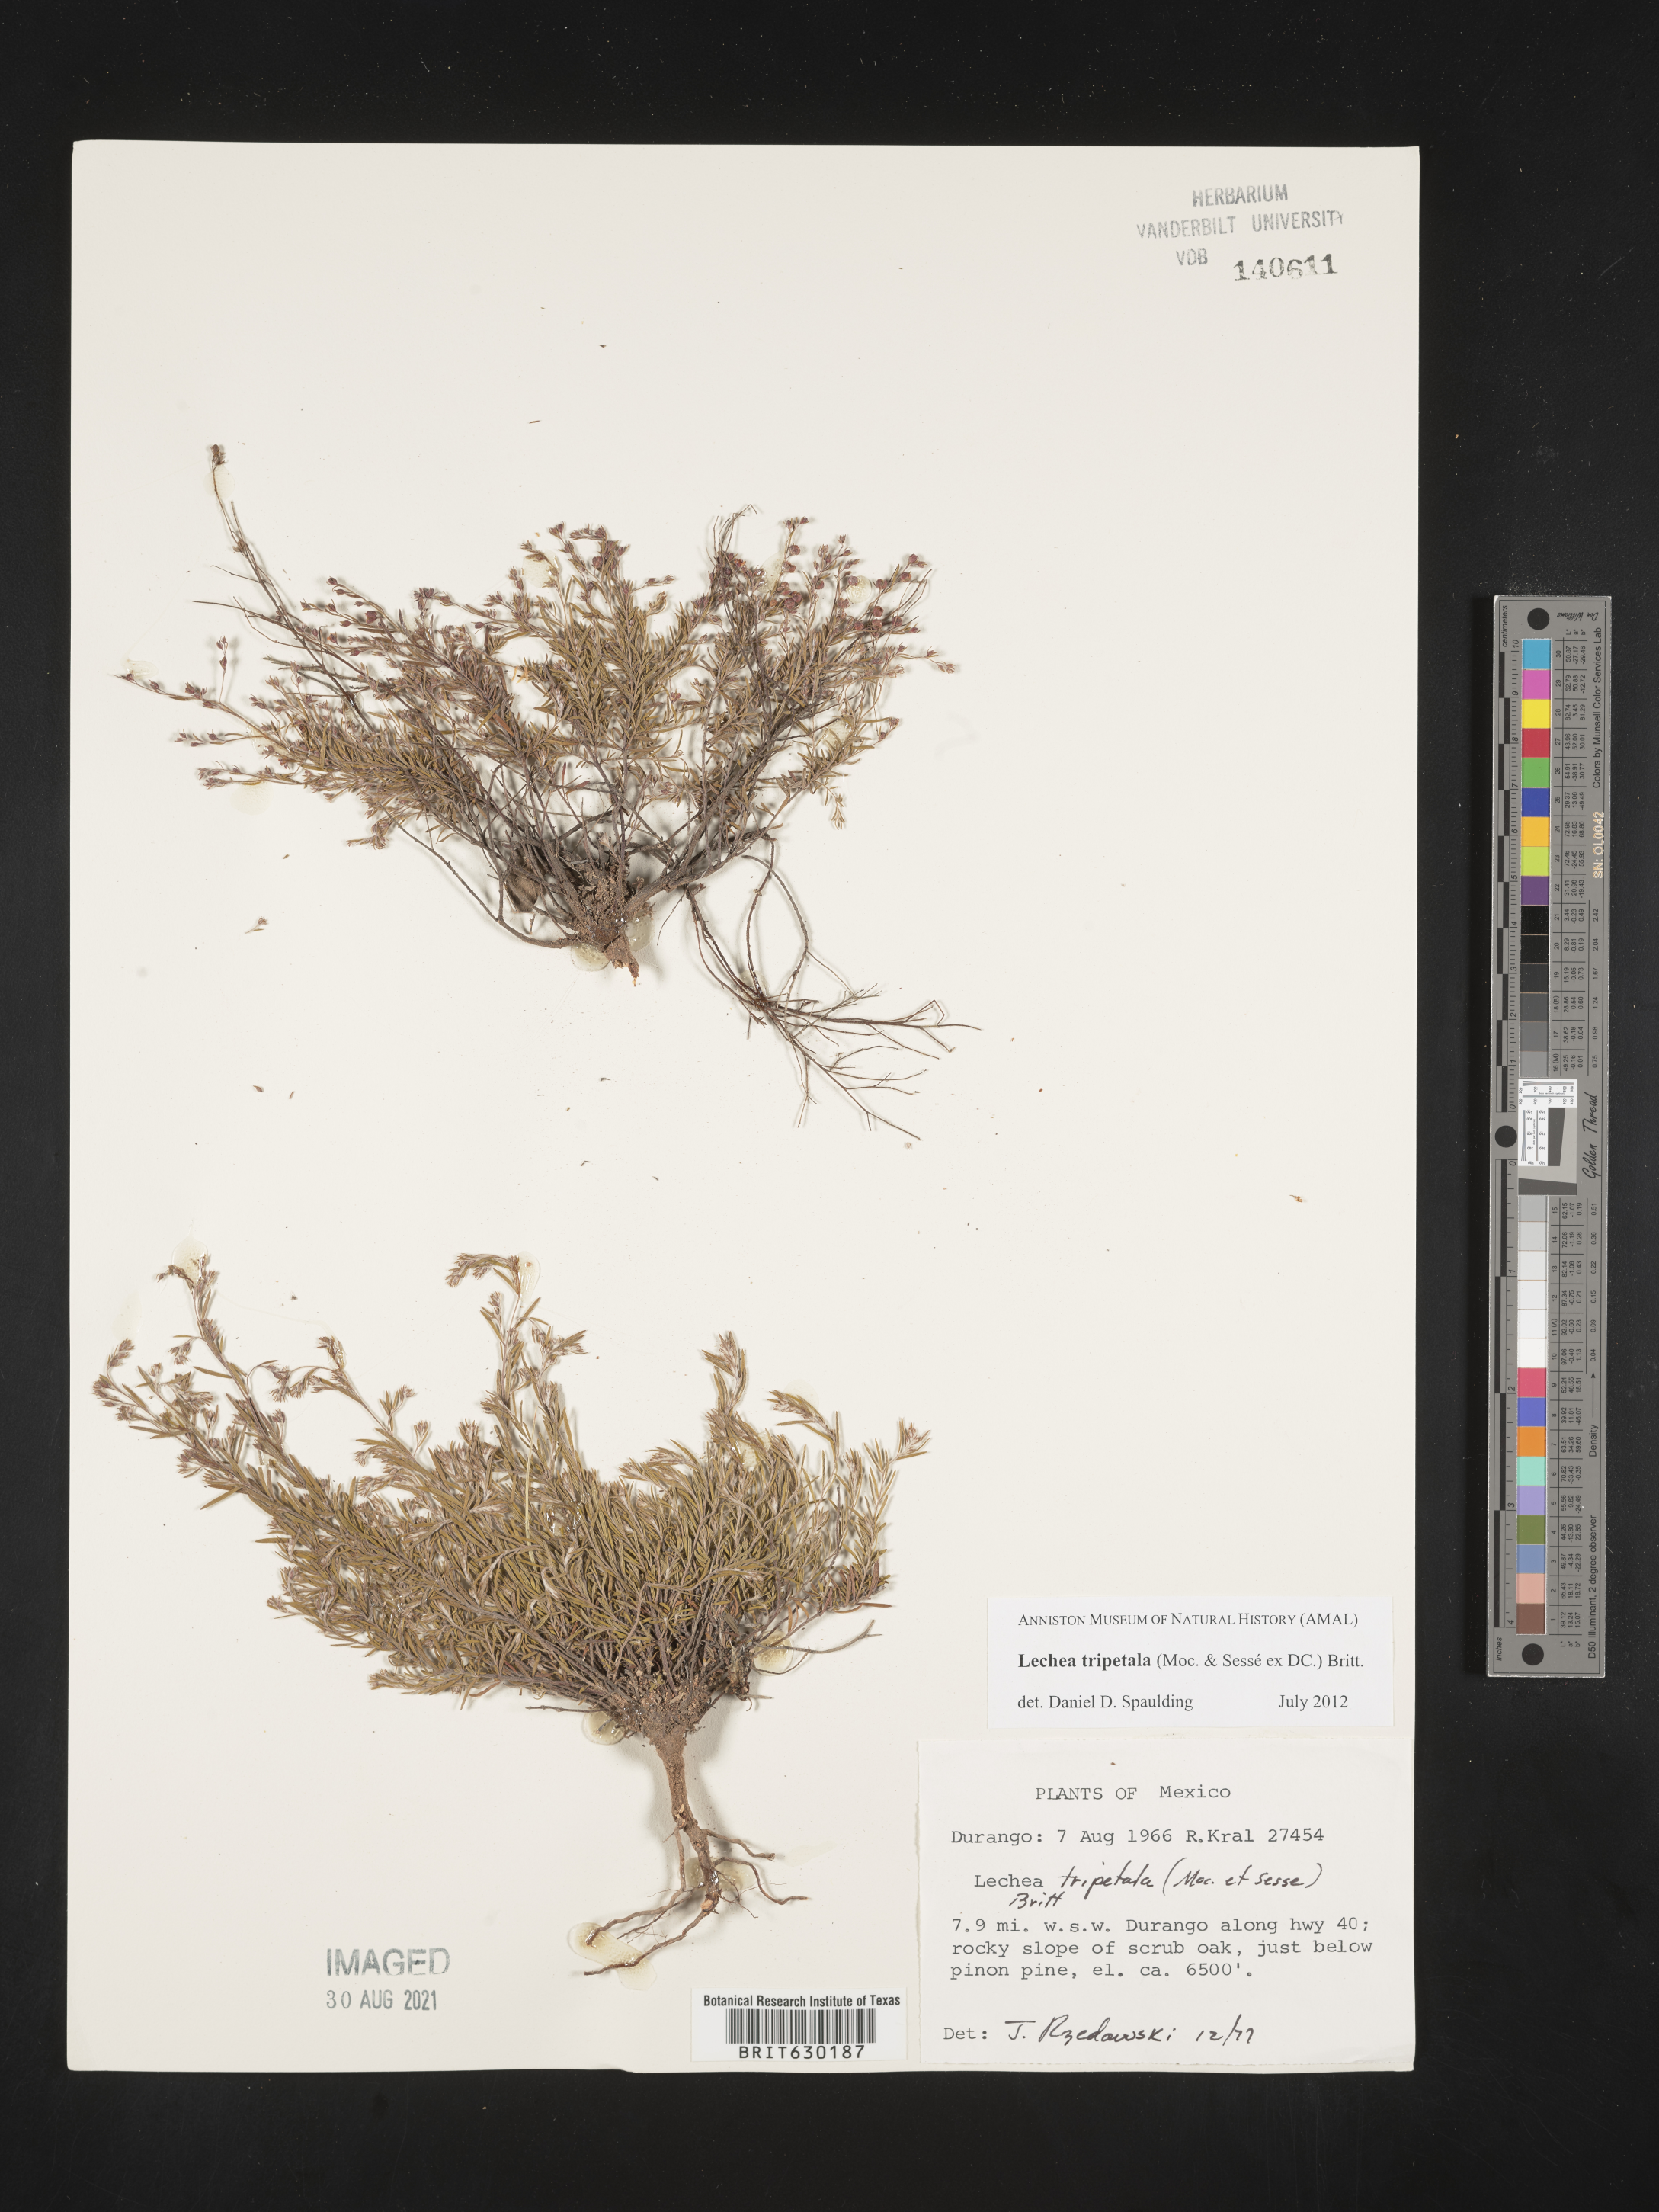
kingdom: Plantae
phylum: Tracheophyta
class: Magnoliopsida
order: Malvales
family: Cistaceae
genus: Lechea
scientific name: Lechea
